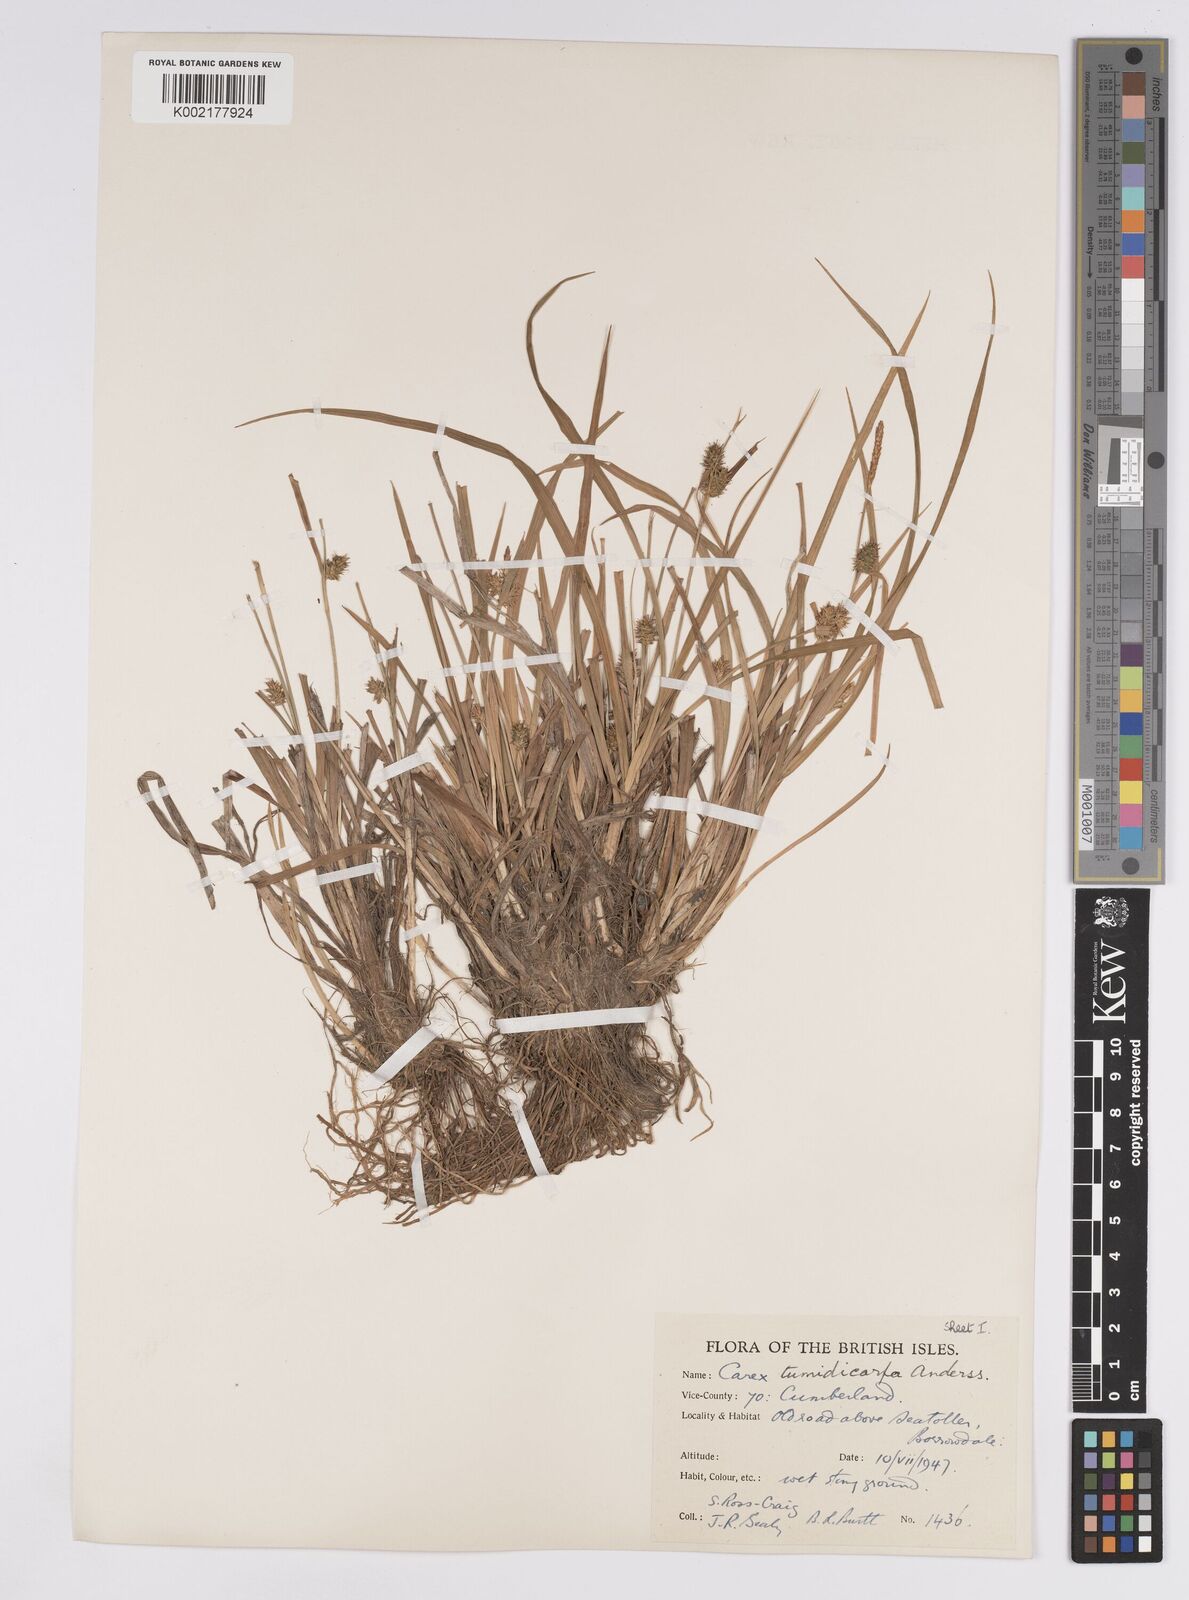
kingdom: Plantae
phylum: Tracheophyta
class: Liliopsida
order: Poales
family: Cyperaceae
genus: Carex
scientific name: Carex demissa
